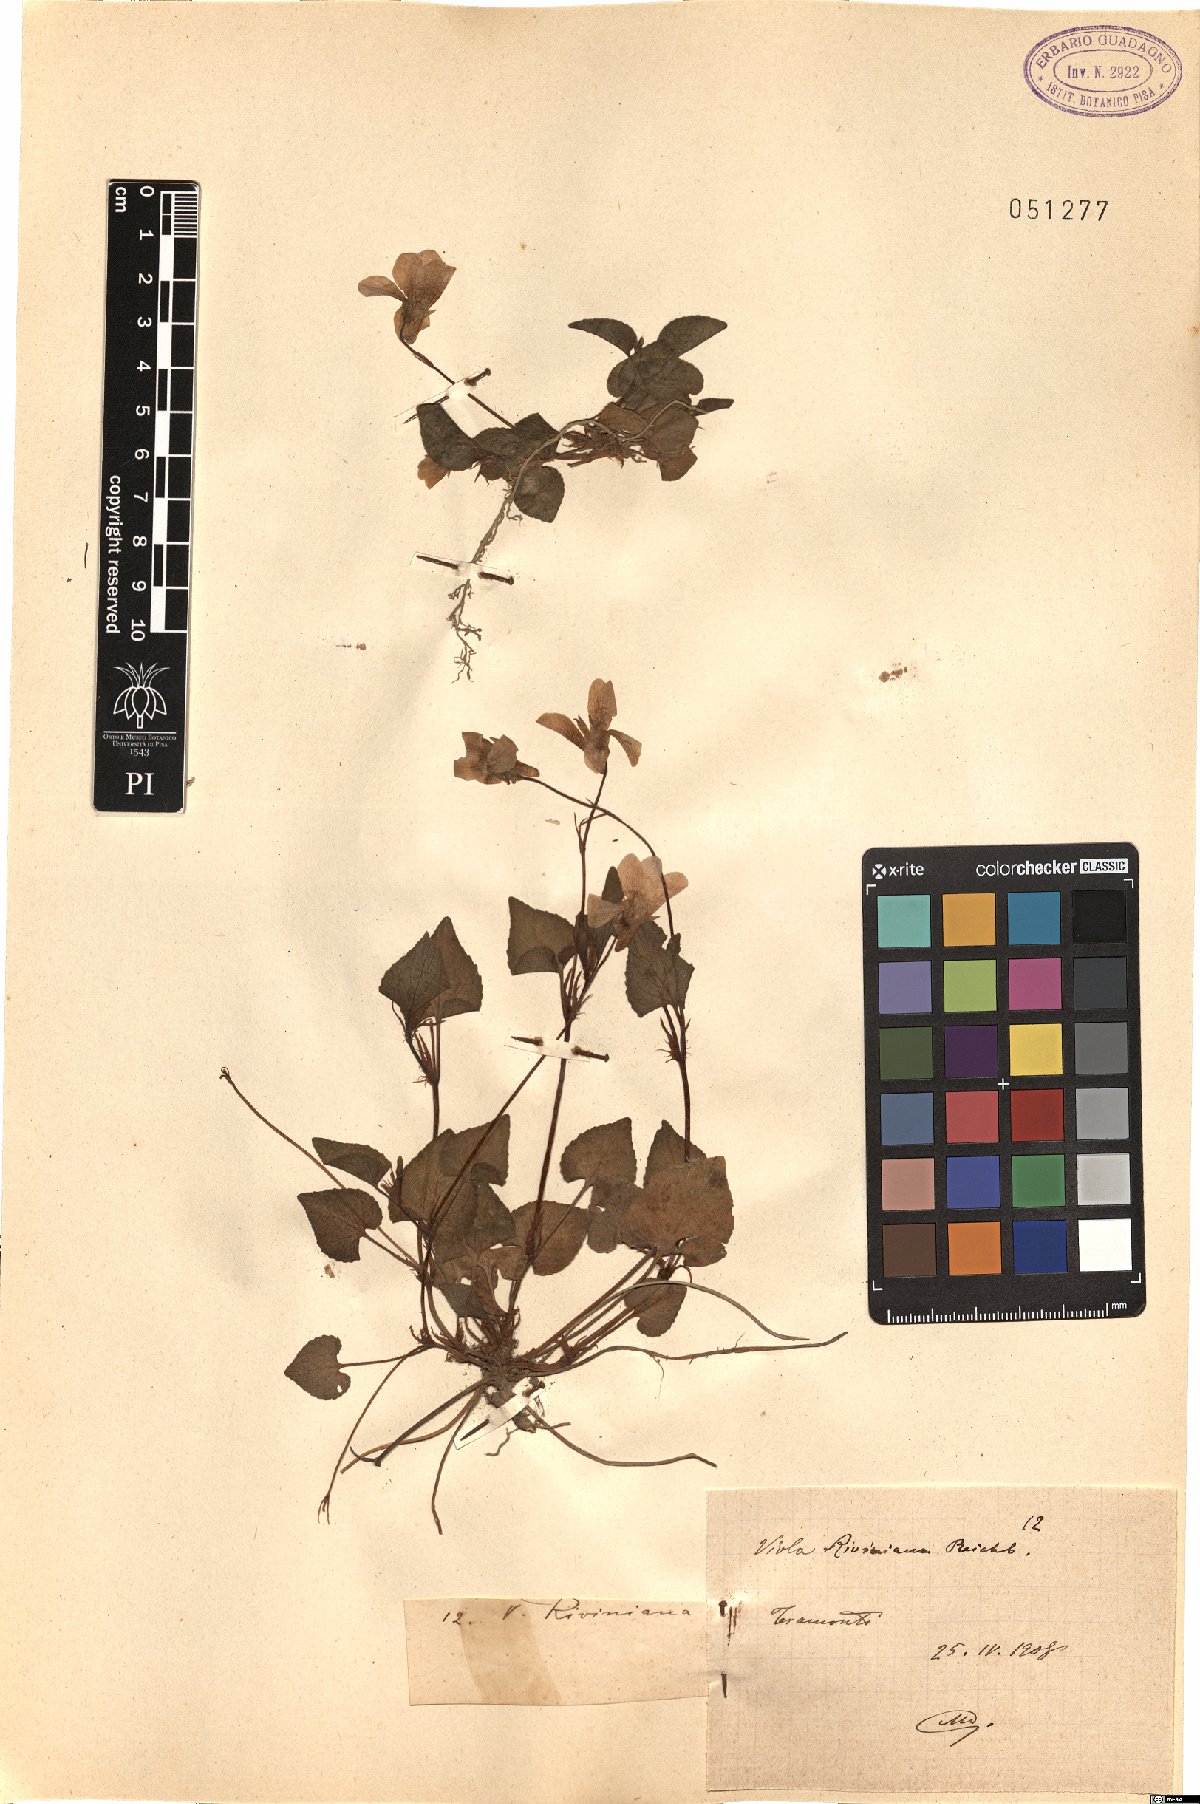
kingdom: Plantae
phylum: Tracheophyta
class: Magnoliopsida
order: Malpighiales
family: Violaceae
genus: Viola
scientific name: Viola riviniana
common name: Common dog-violet
